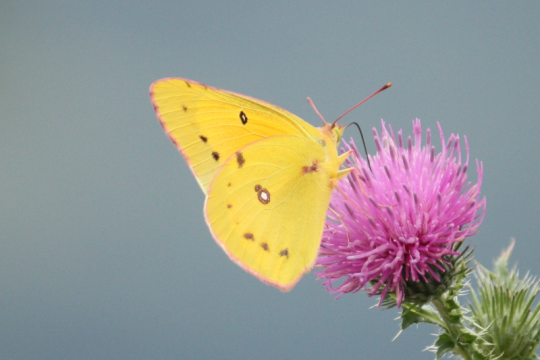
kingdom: Animalia
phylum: Arthropoda
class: Insecta
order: Lepidoptera
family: Pieridae
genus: Colias
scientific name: Colias eurytheme
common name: Orange Sulphur
